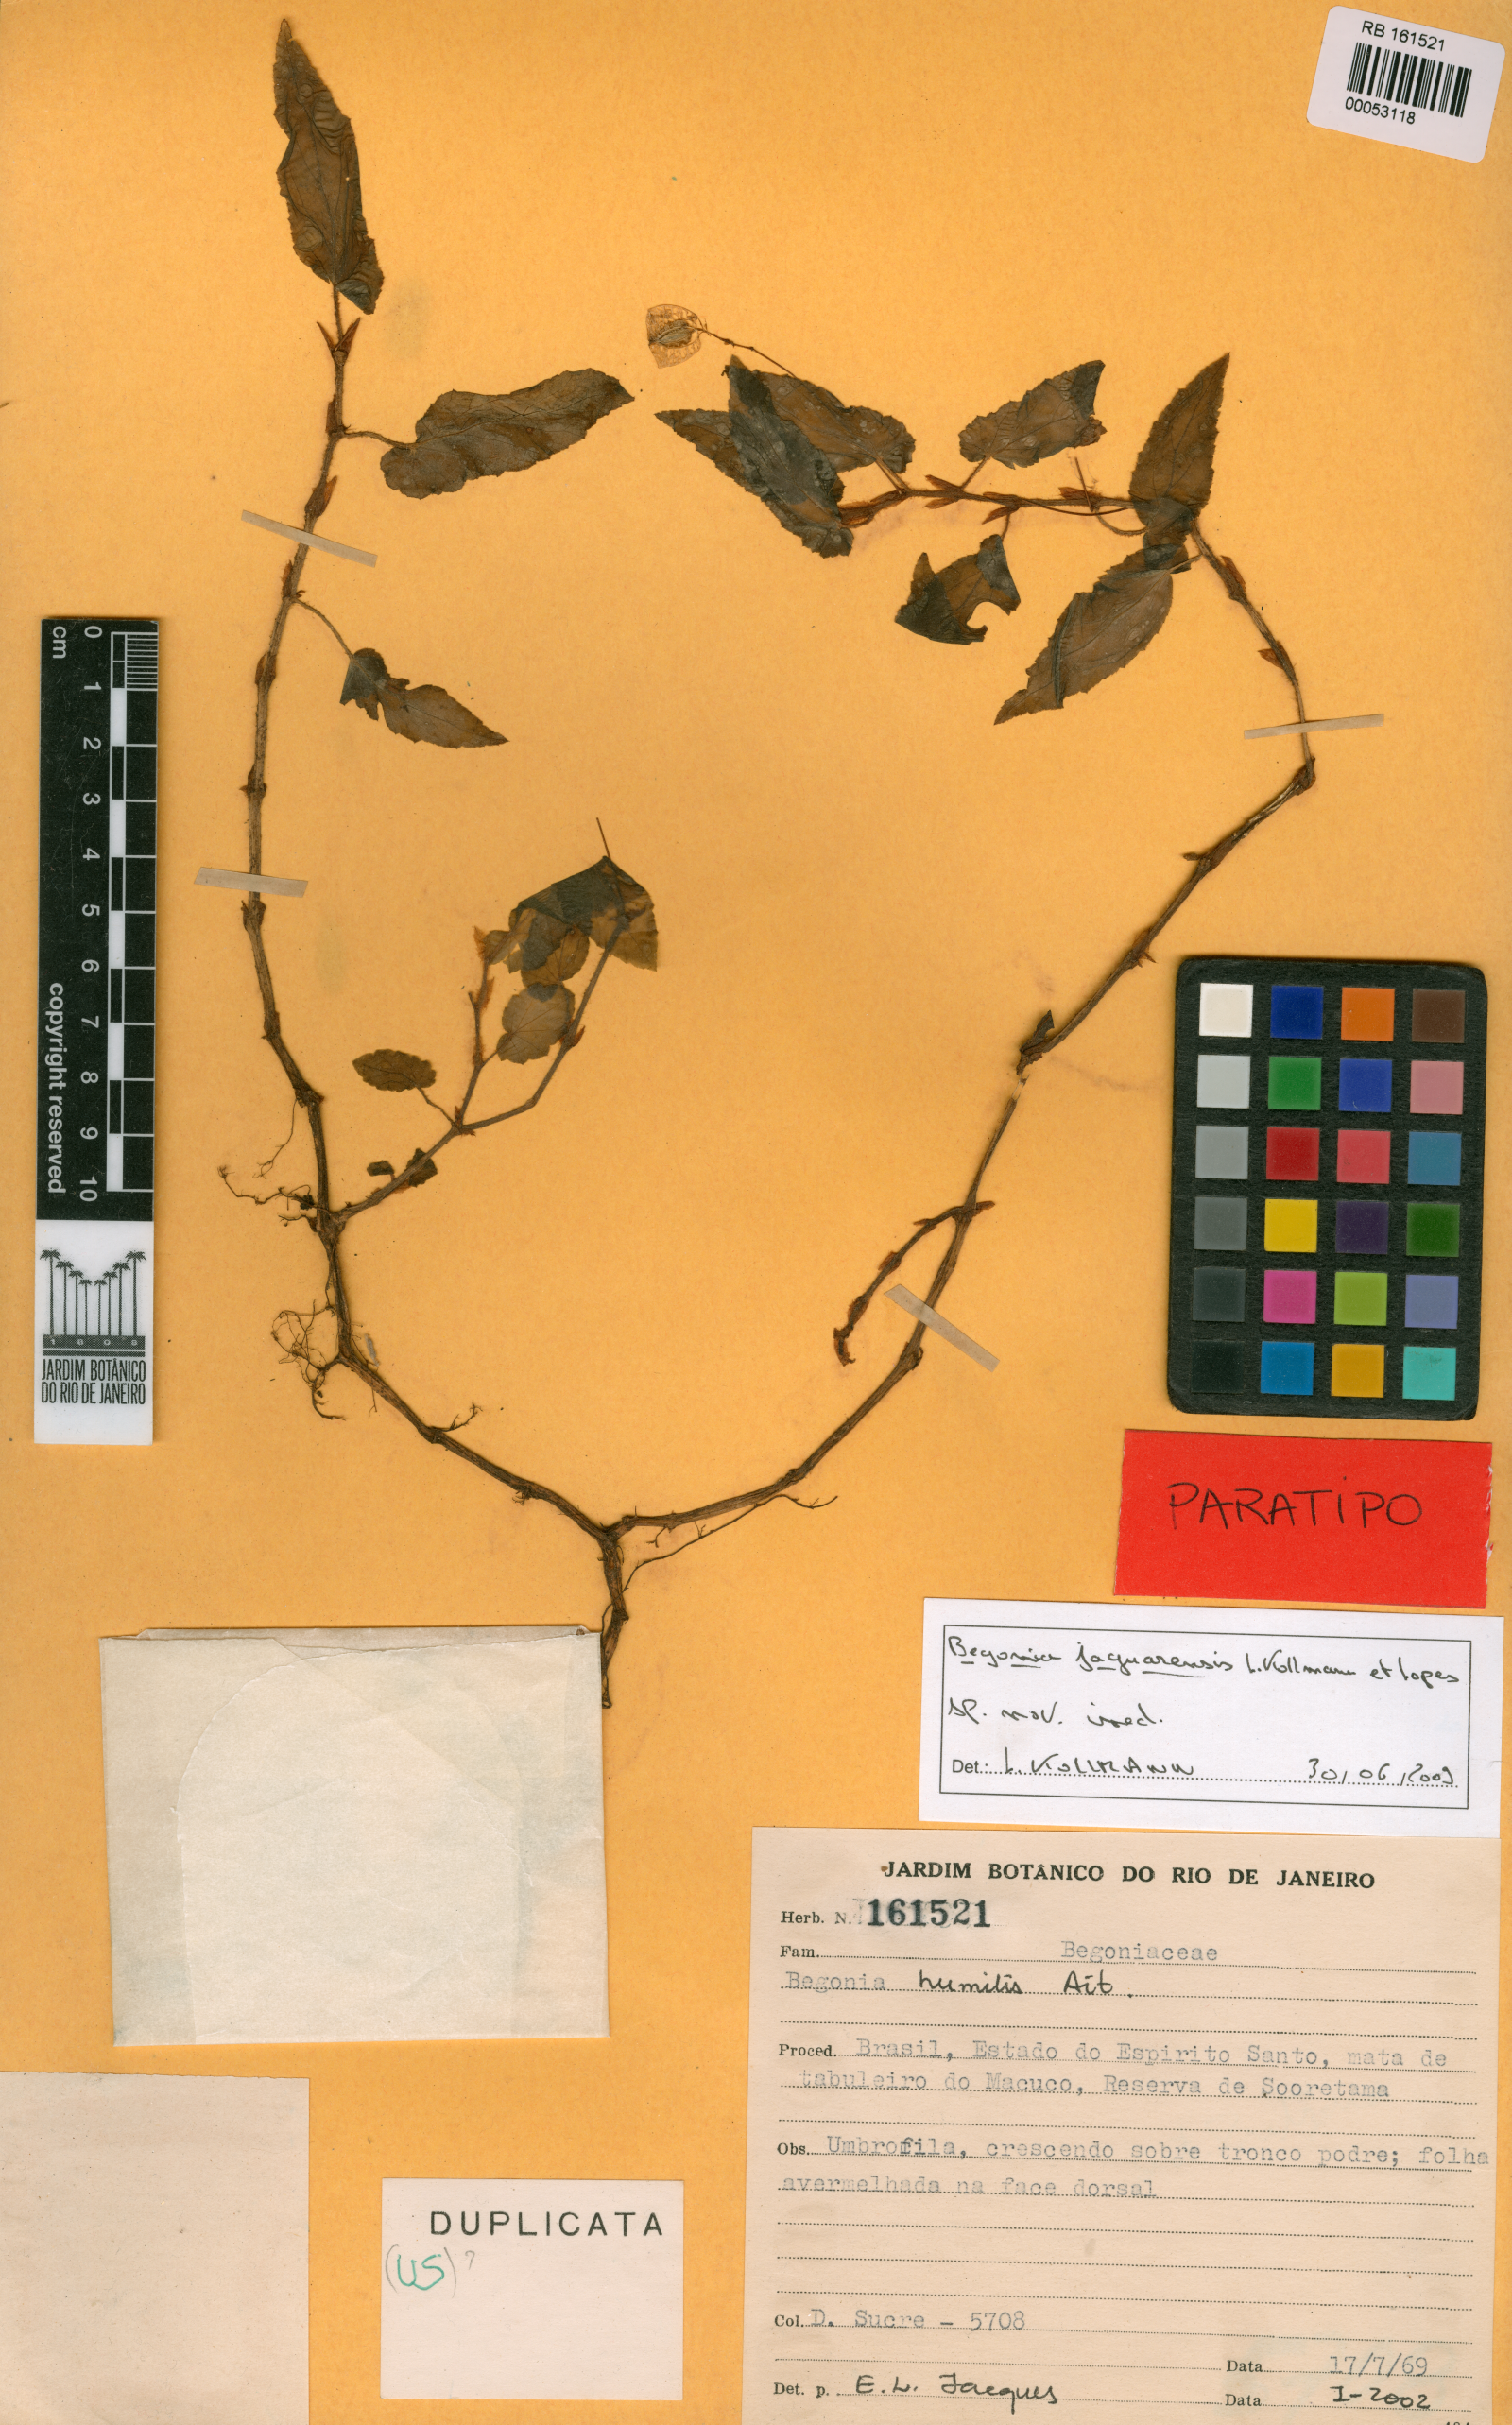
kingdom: Plantae
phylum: Tracheophyta
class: Magnoliopsida
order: Cucurbitales
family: Begoniaceae
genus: Begonia
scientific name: Begonia jaguarensis
